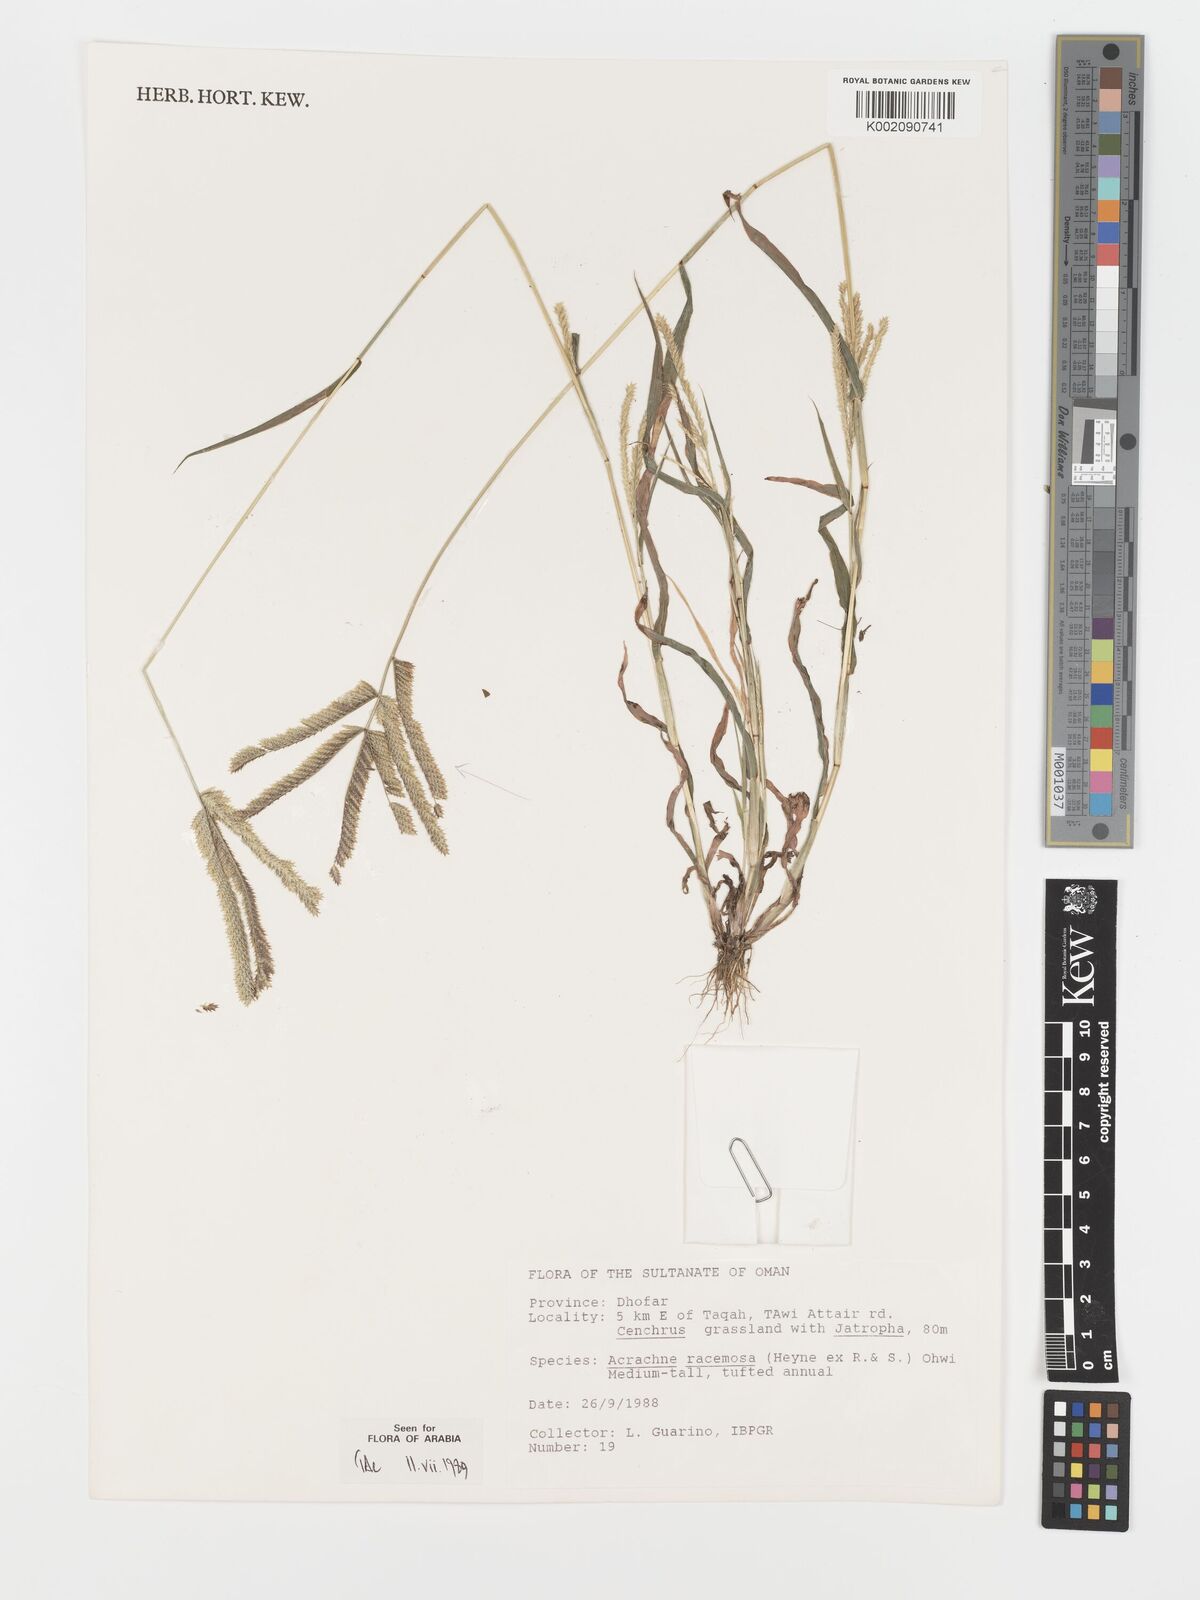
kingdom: Plantae
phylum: Tracheophyta
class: Liliopsida
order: Poales
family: Poaceae
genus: Acrachne
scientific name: Acrachne racemosa
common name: Goosegrass
